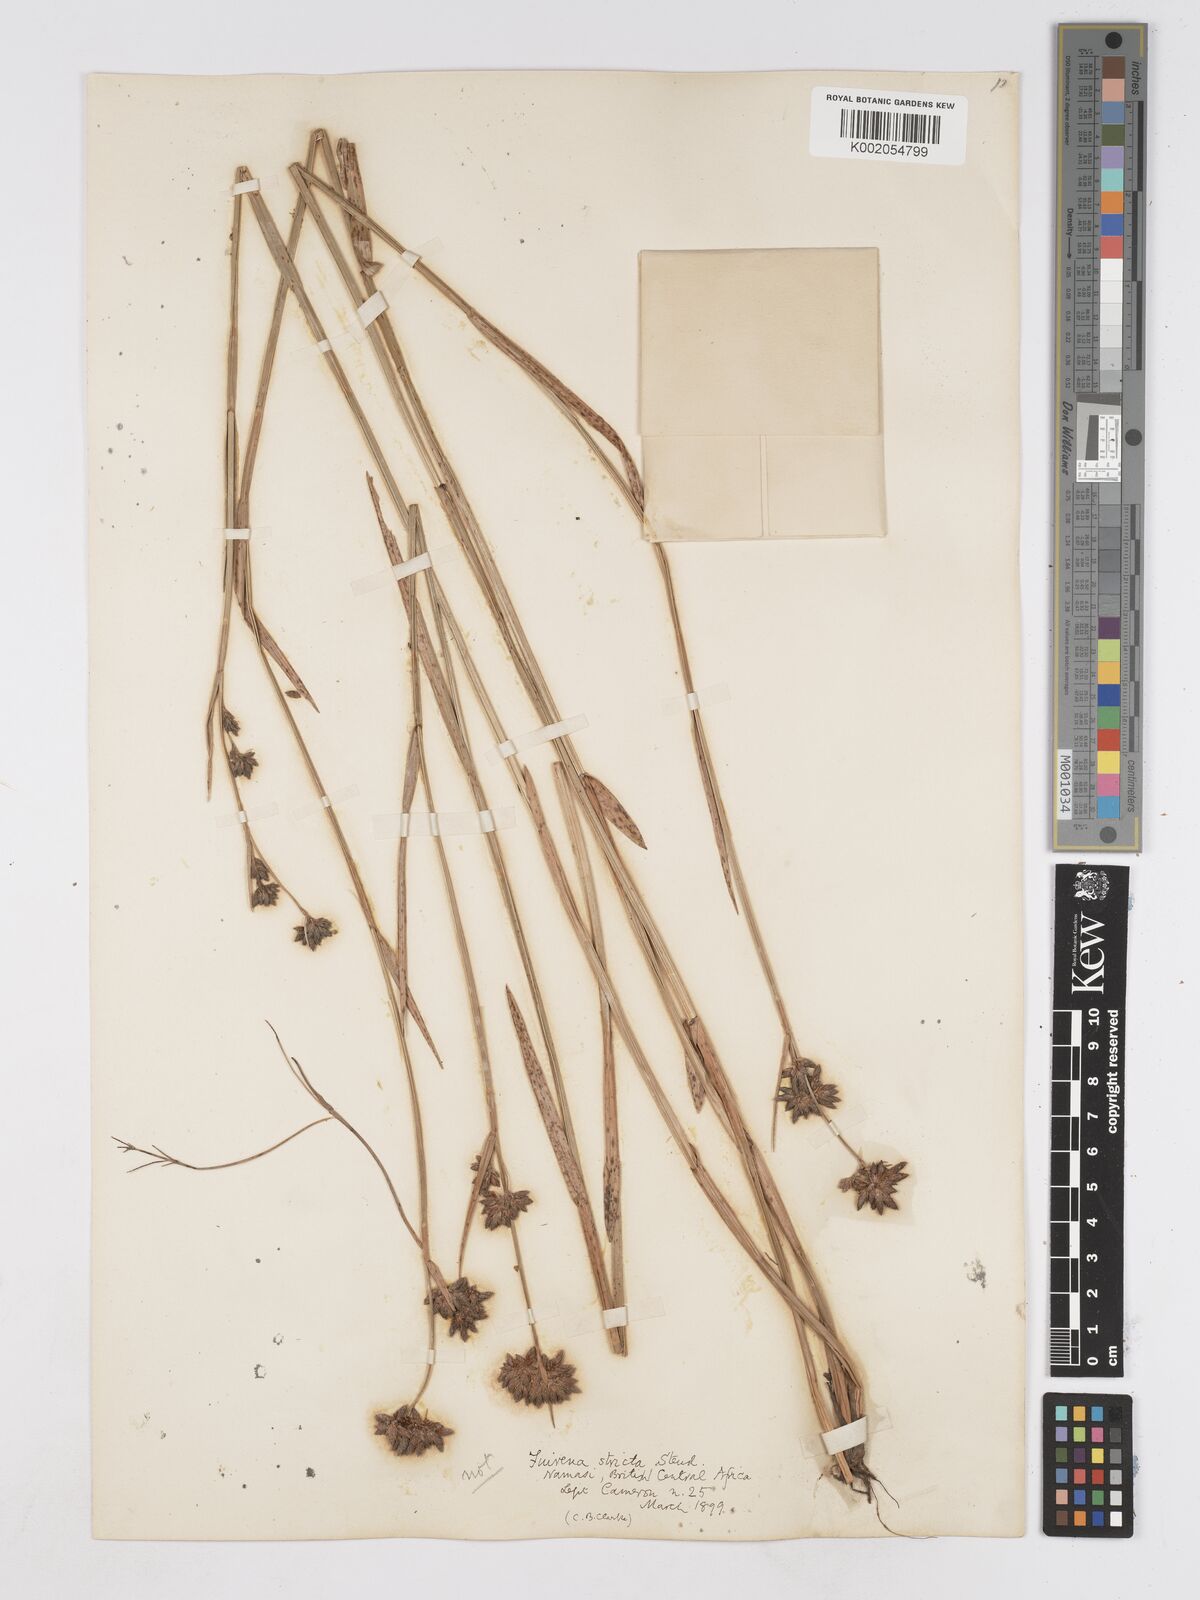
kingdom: Plantae
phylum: Tracheophyta
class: Liliopsida
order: Poales
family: Cyperaceae
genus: Fuirena
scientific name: Fuirena stricta
